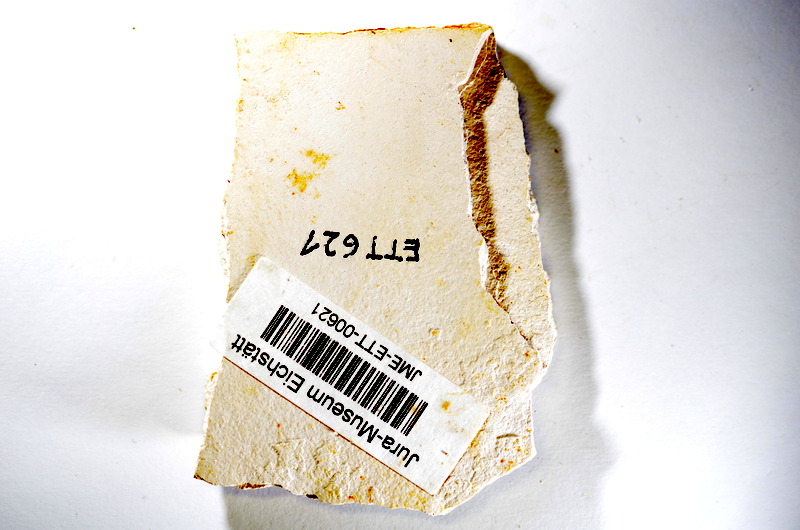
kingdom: Animalia
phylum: Chordata
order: Salmoniformes
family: Orthogonikleithridae
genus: Orthogonikleithrus
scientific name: Orthogonikleithrus hoelli
